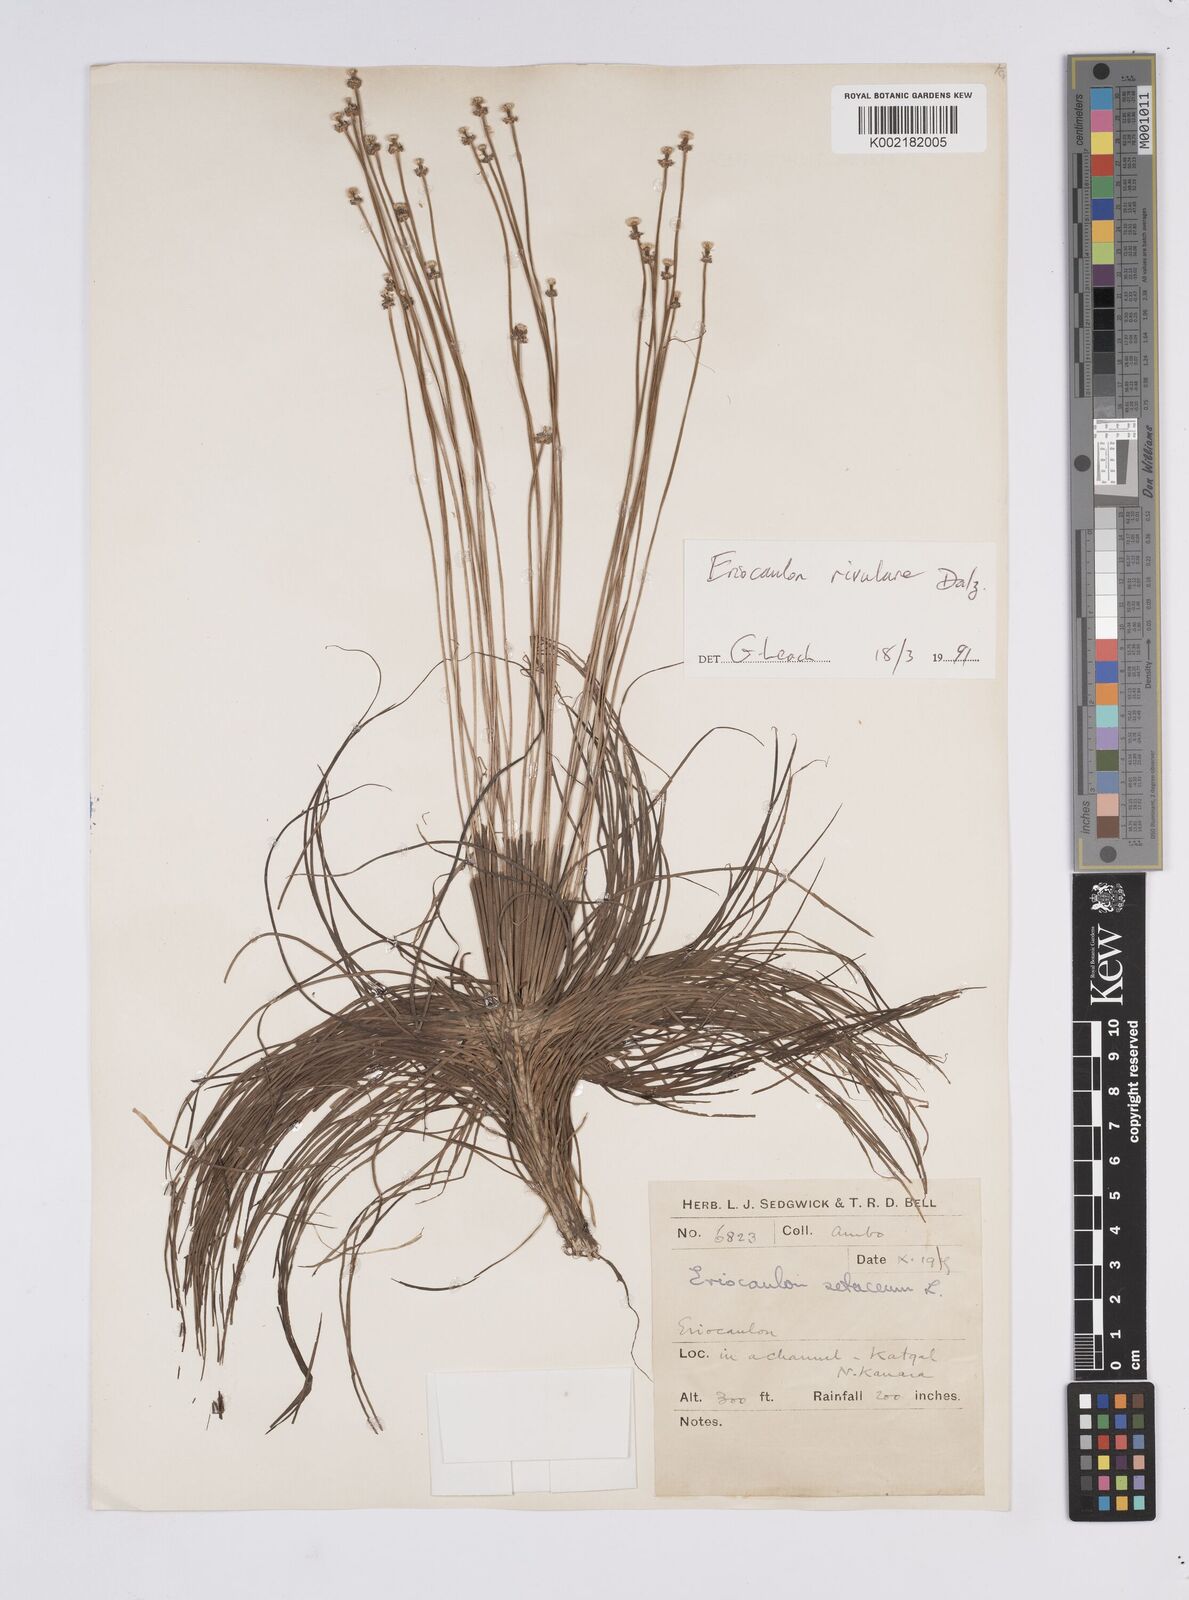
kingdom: Plantae
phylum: Tracheophyta
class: Liliopsida
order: Poales
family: Eriocaulaceae
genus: Eriocaulon
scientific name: Eriocaulon dalzellii
